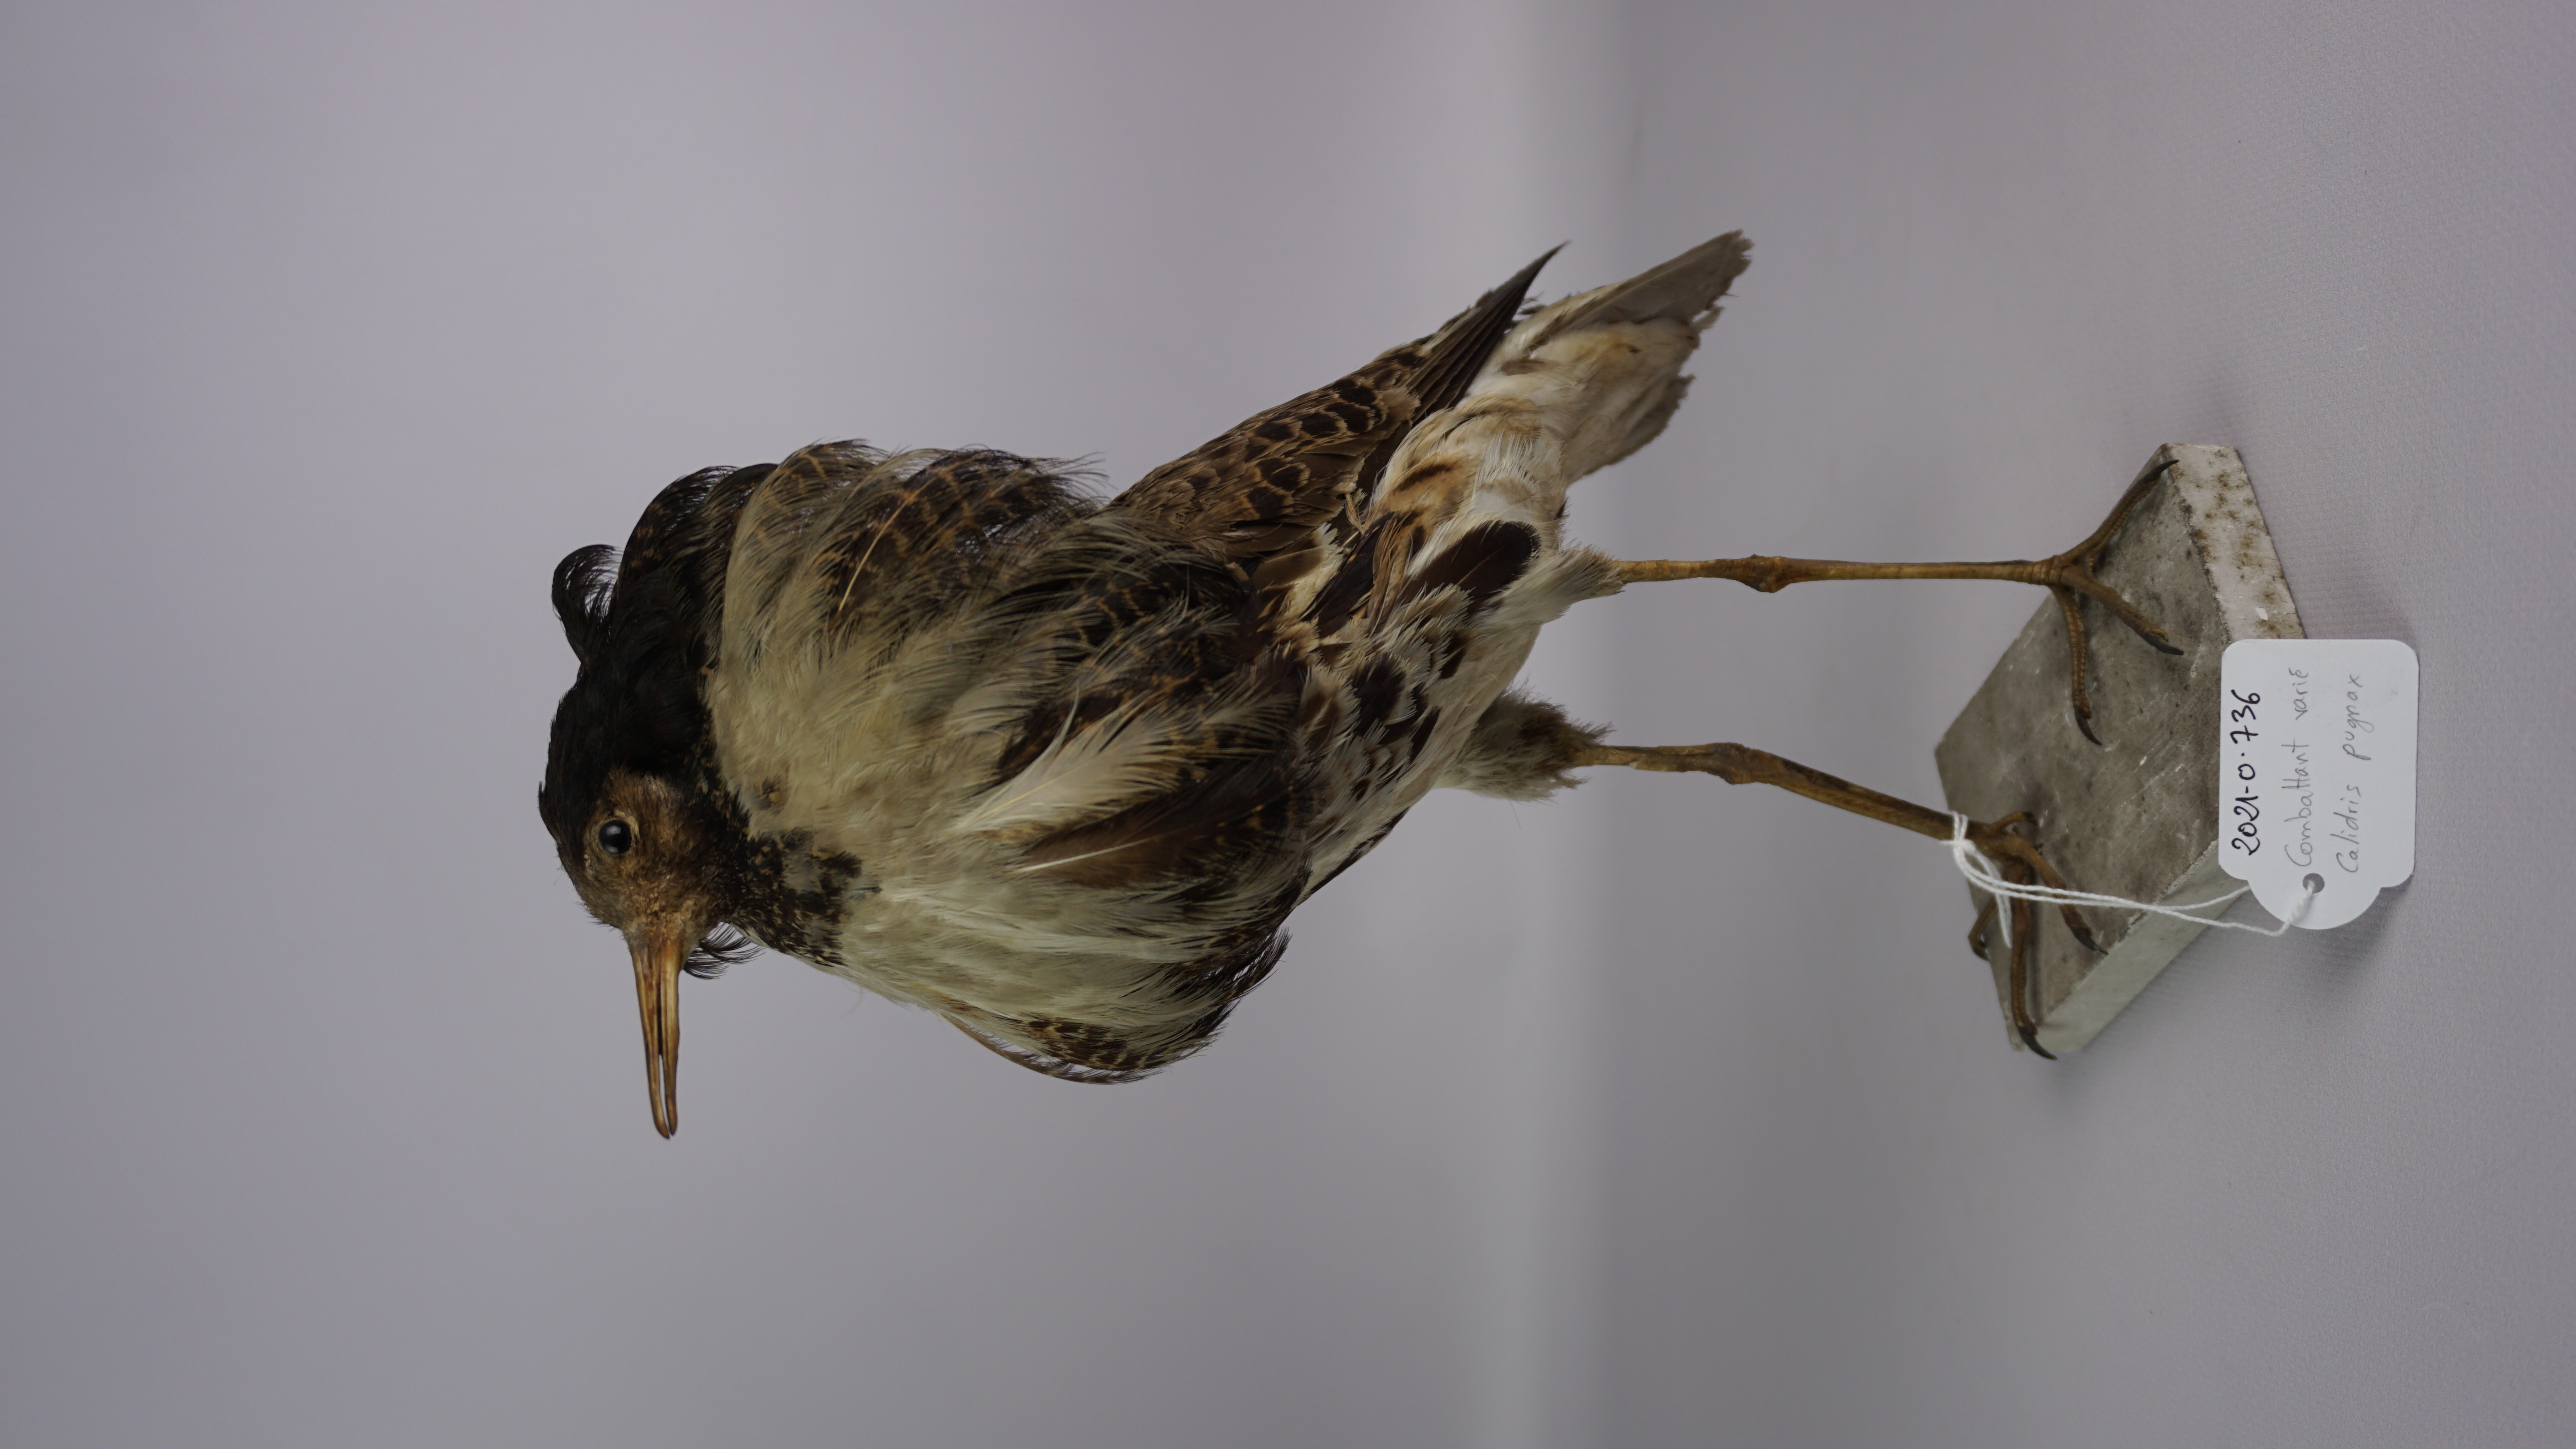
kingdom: Animalia
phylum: Chordata
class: Aves
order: Charadriiformes
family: Scolopacidae
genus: Calidris
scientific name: Calidris pugnax
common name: Ruff
